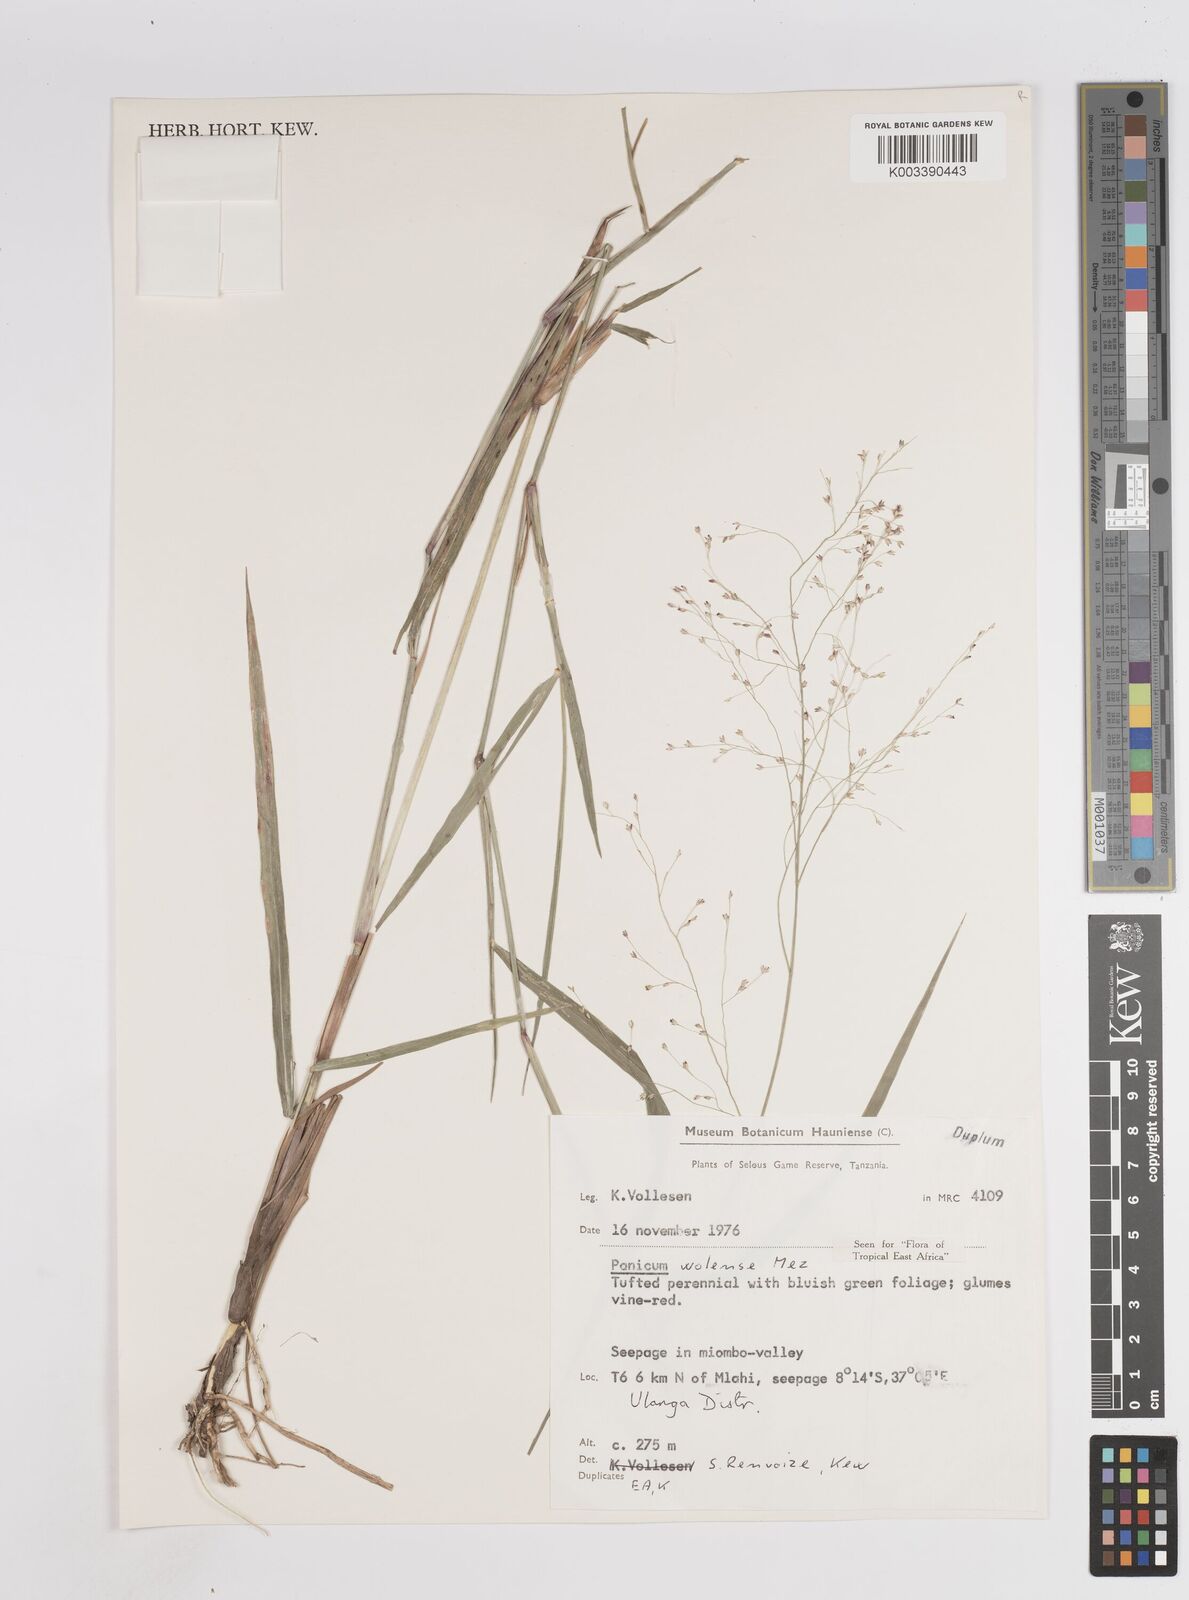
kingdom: Plantae
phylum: Tracheophyta
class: Liliopsida
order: Poales
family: Poaceae
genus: Panicum
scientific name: Panicum genuflexum
